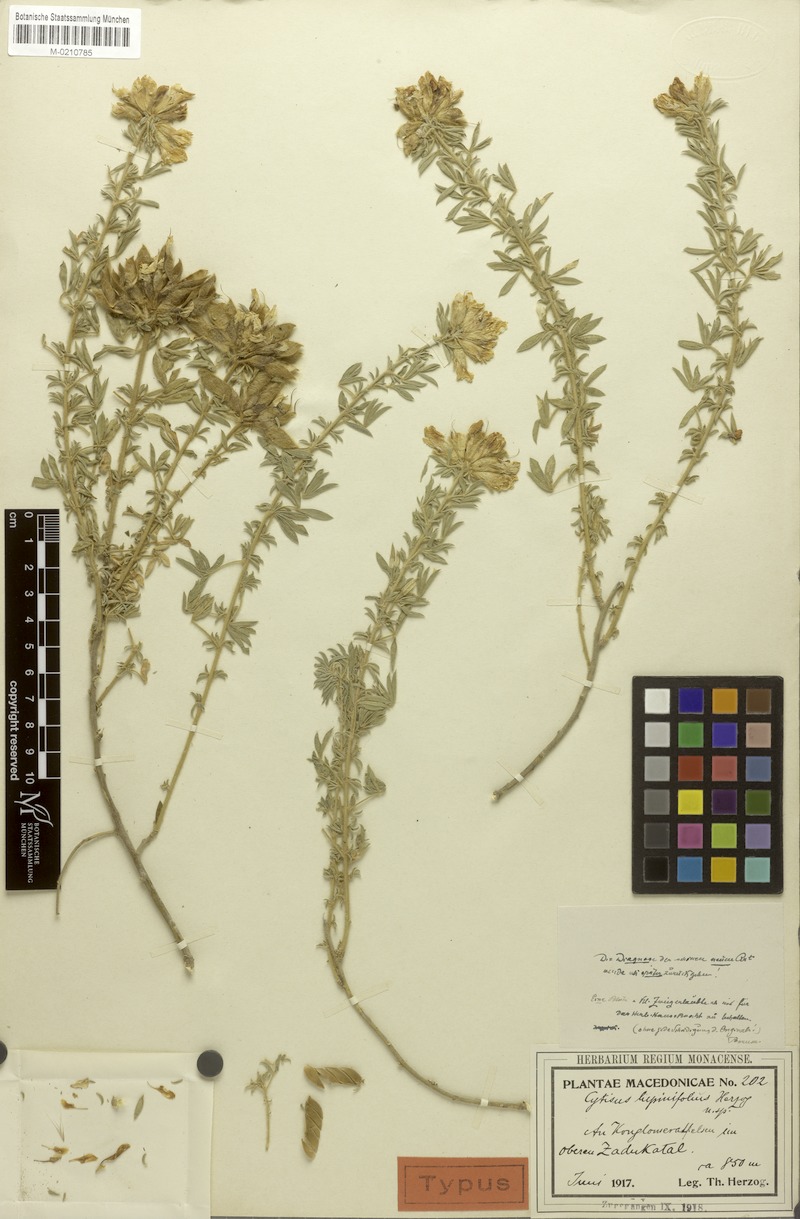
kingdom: Plantae
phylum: Tracheophyta
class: Magnoliopsida
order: Fabales
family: Fabaceae
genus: Chamaecytisus
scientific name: Chamaecytisus supinus
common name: Clustered broom
